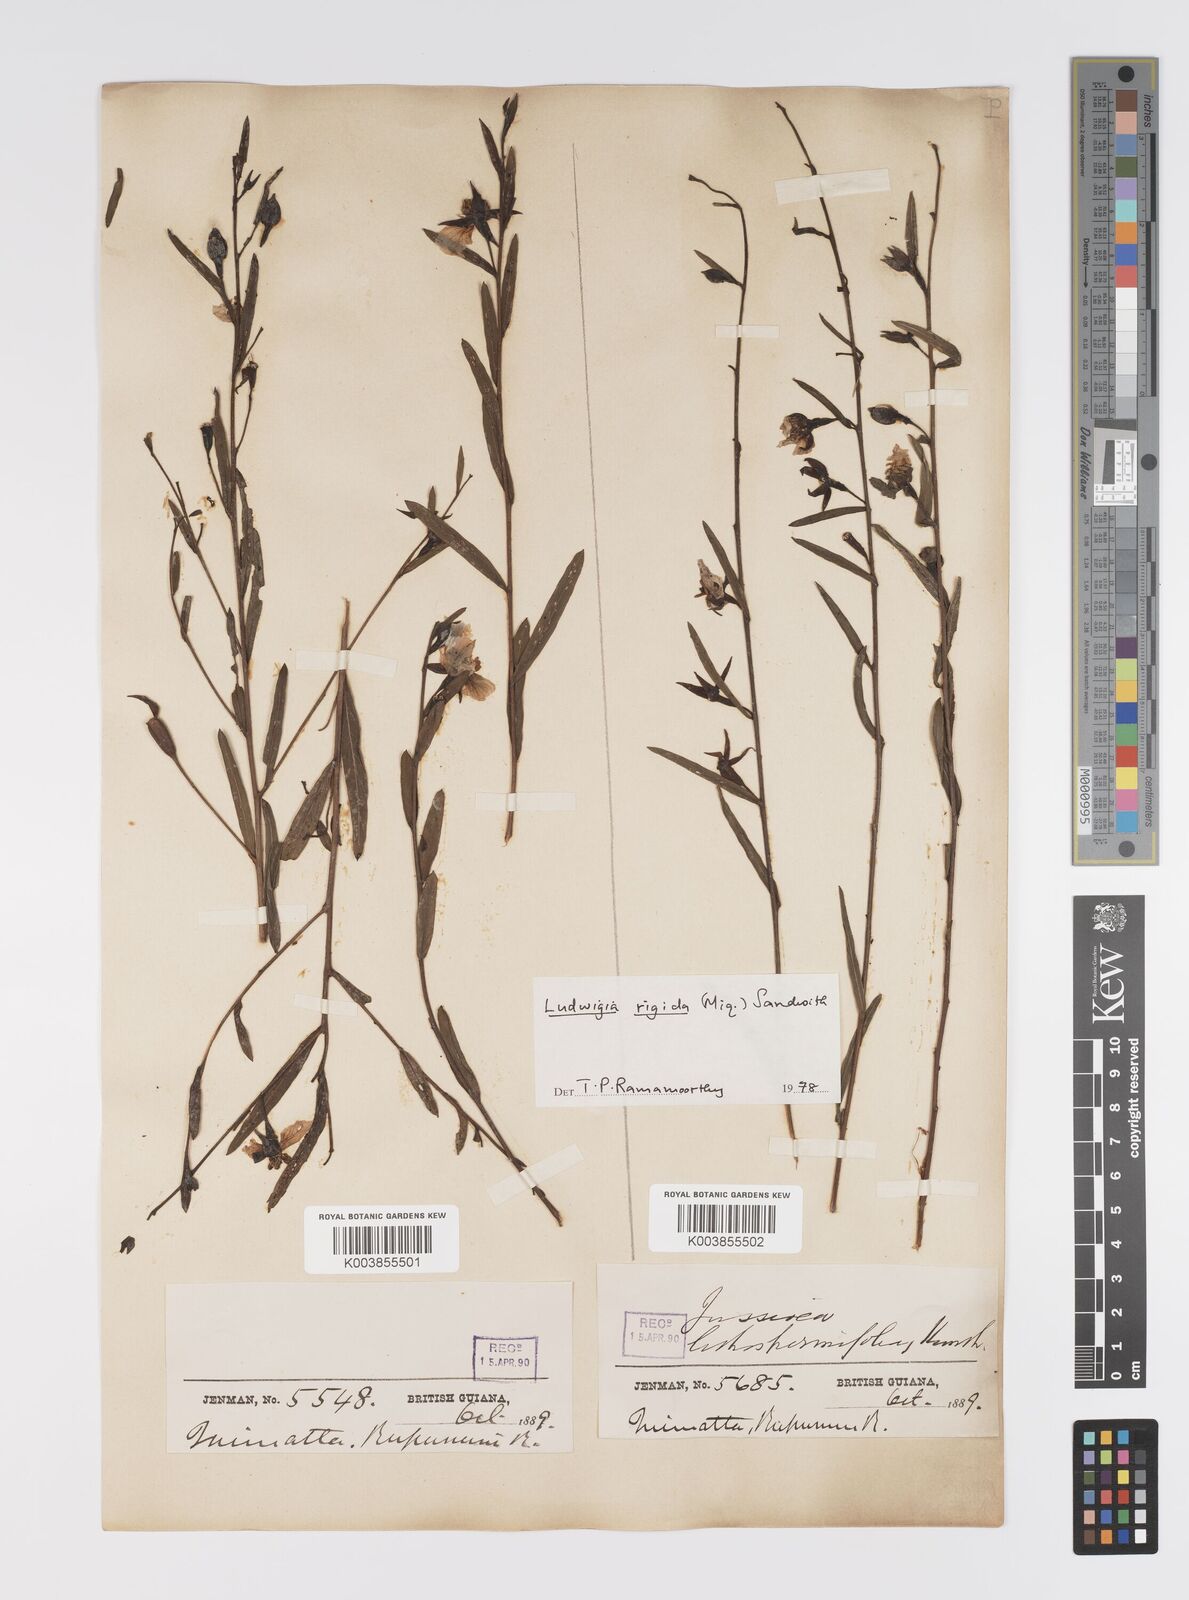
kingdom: Plantae
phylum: Tracheophyta
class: Magnoliopsida
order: Myrtales
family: Onagraceae
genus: Ludwigia
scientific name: Ludwigia rigida
